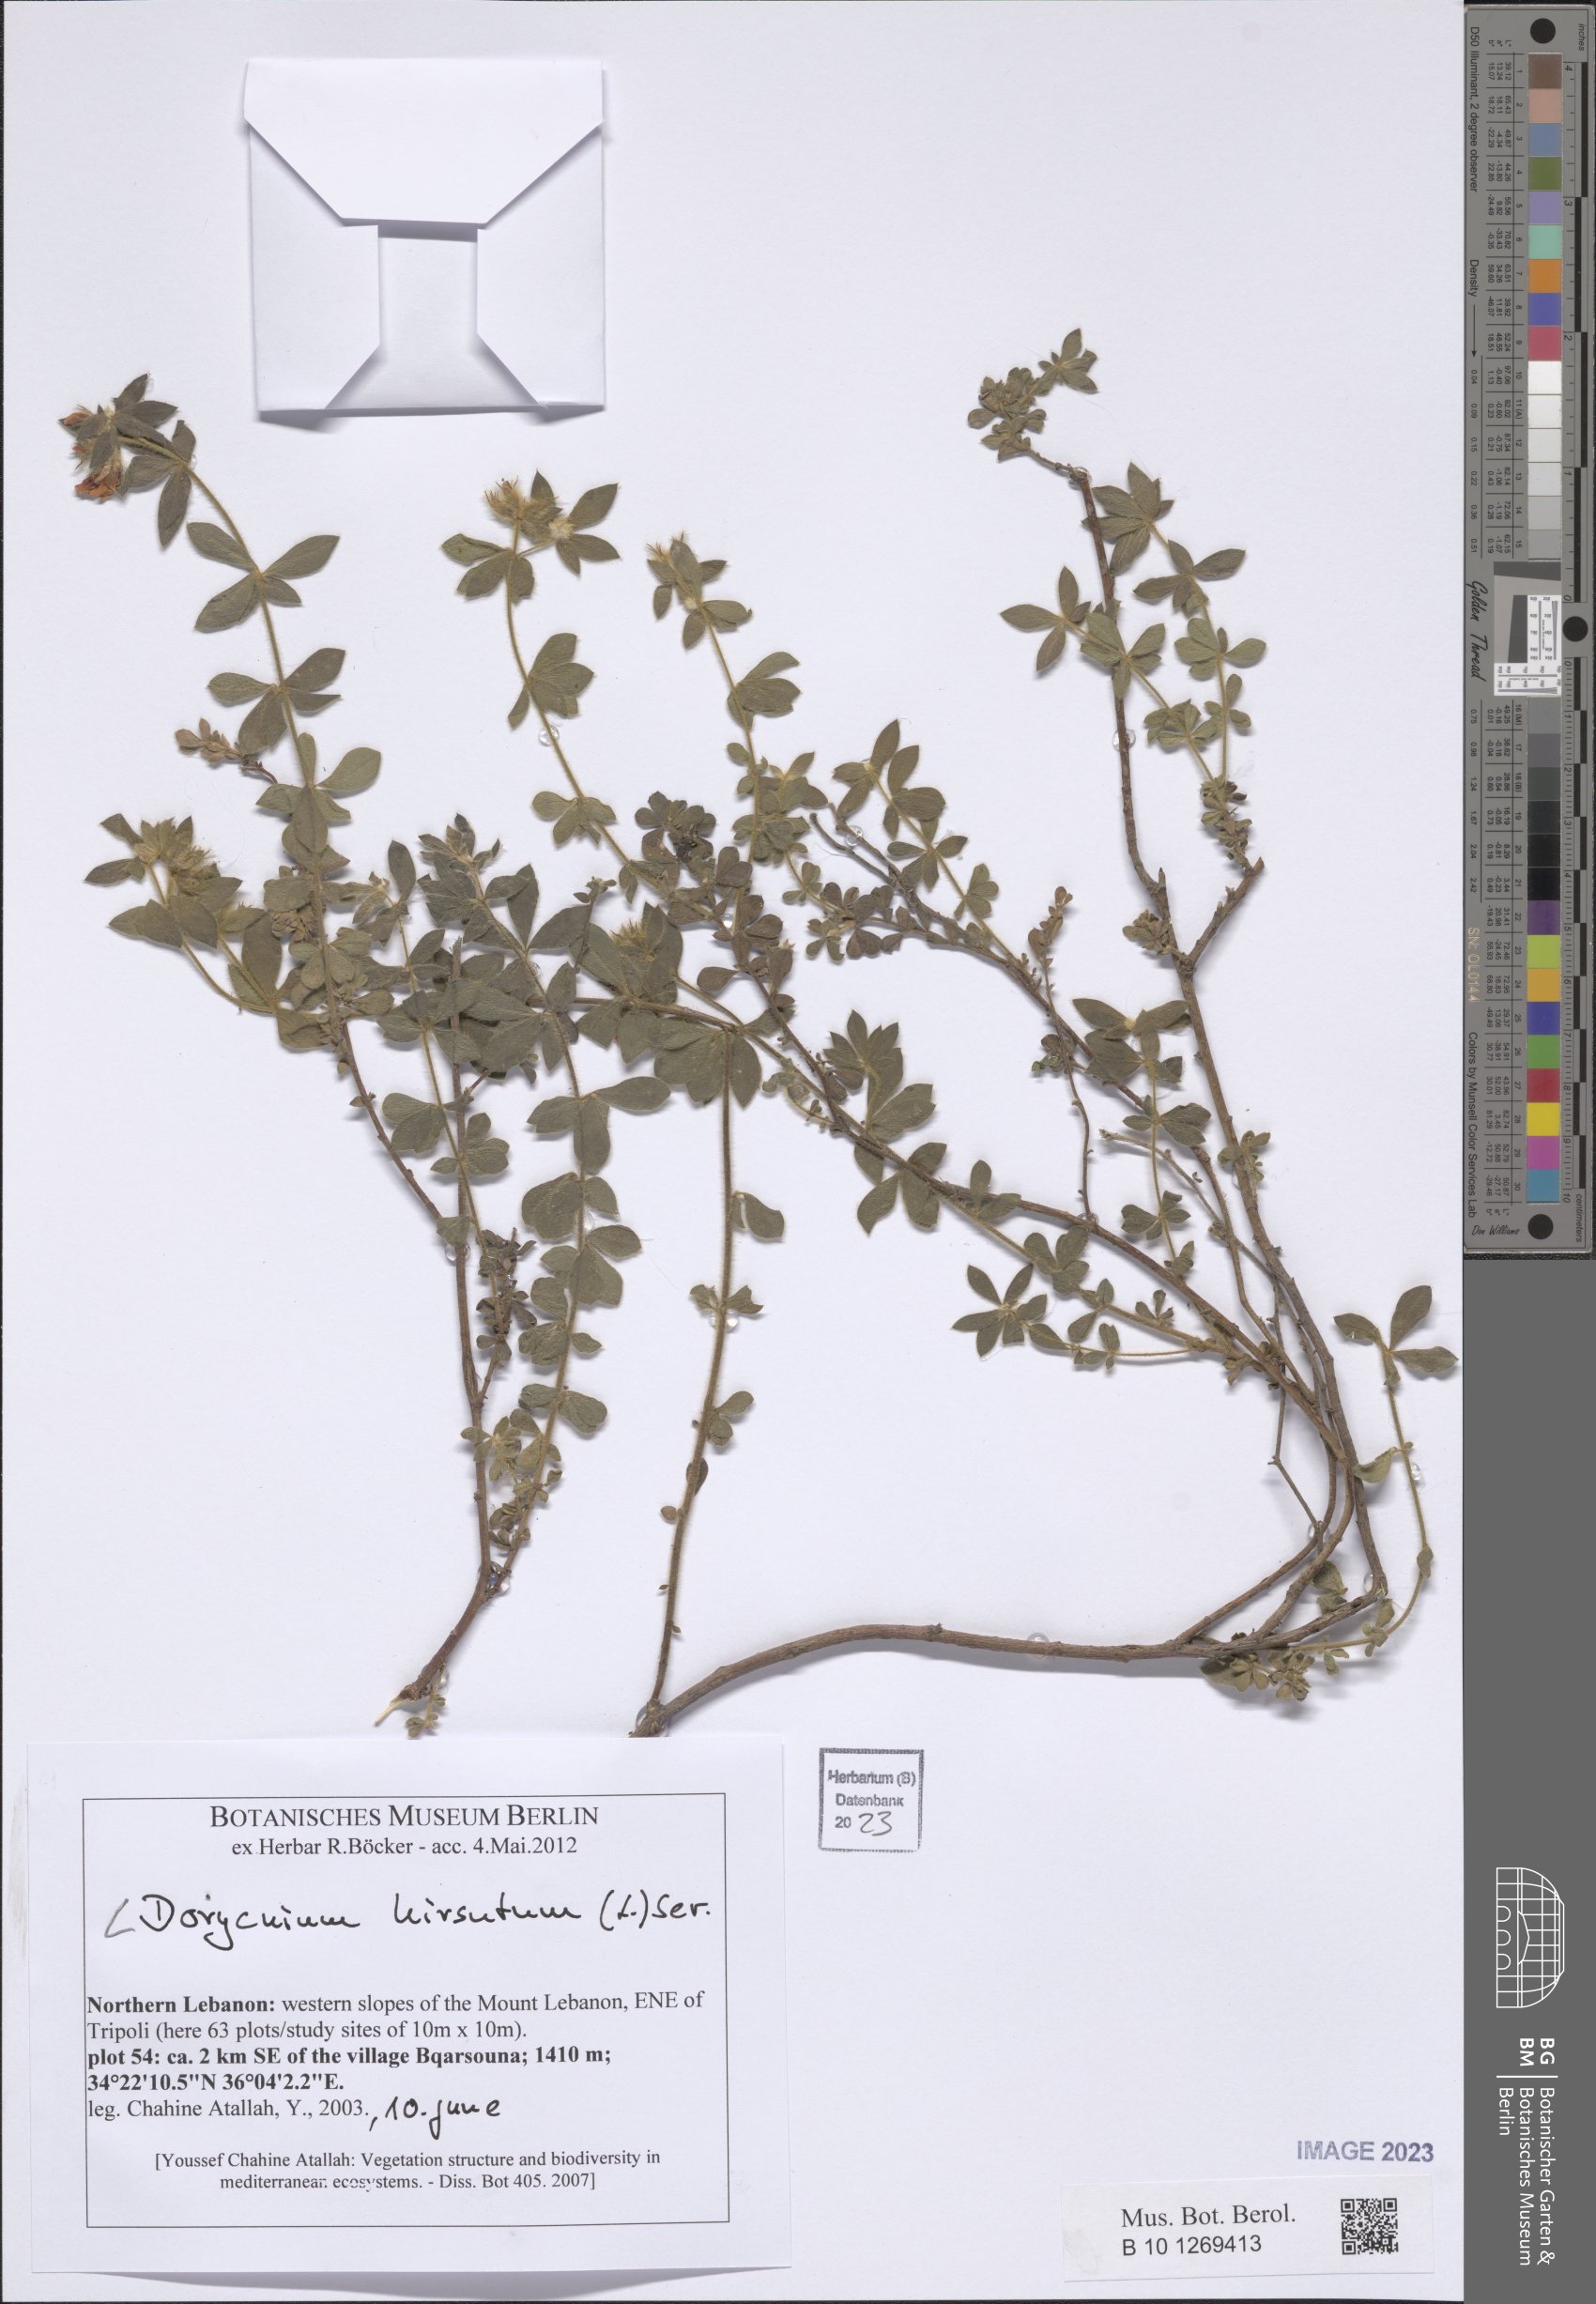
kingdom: Plantae
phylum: Tracheophyta
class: Magnoliopsida
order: Fabales
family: Fabaceae
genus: Lotus
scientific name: Lotus hirsutus
